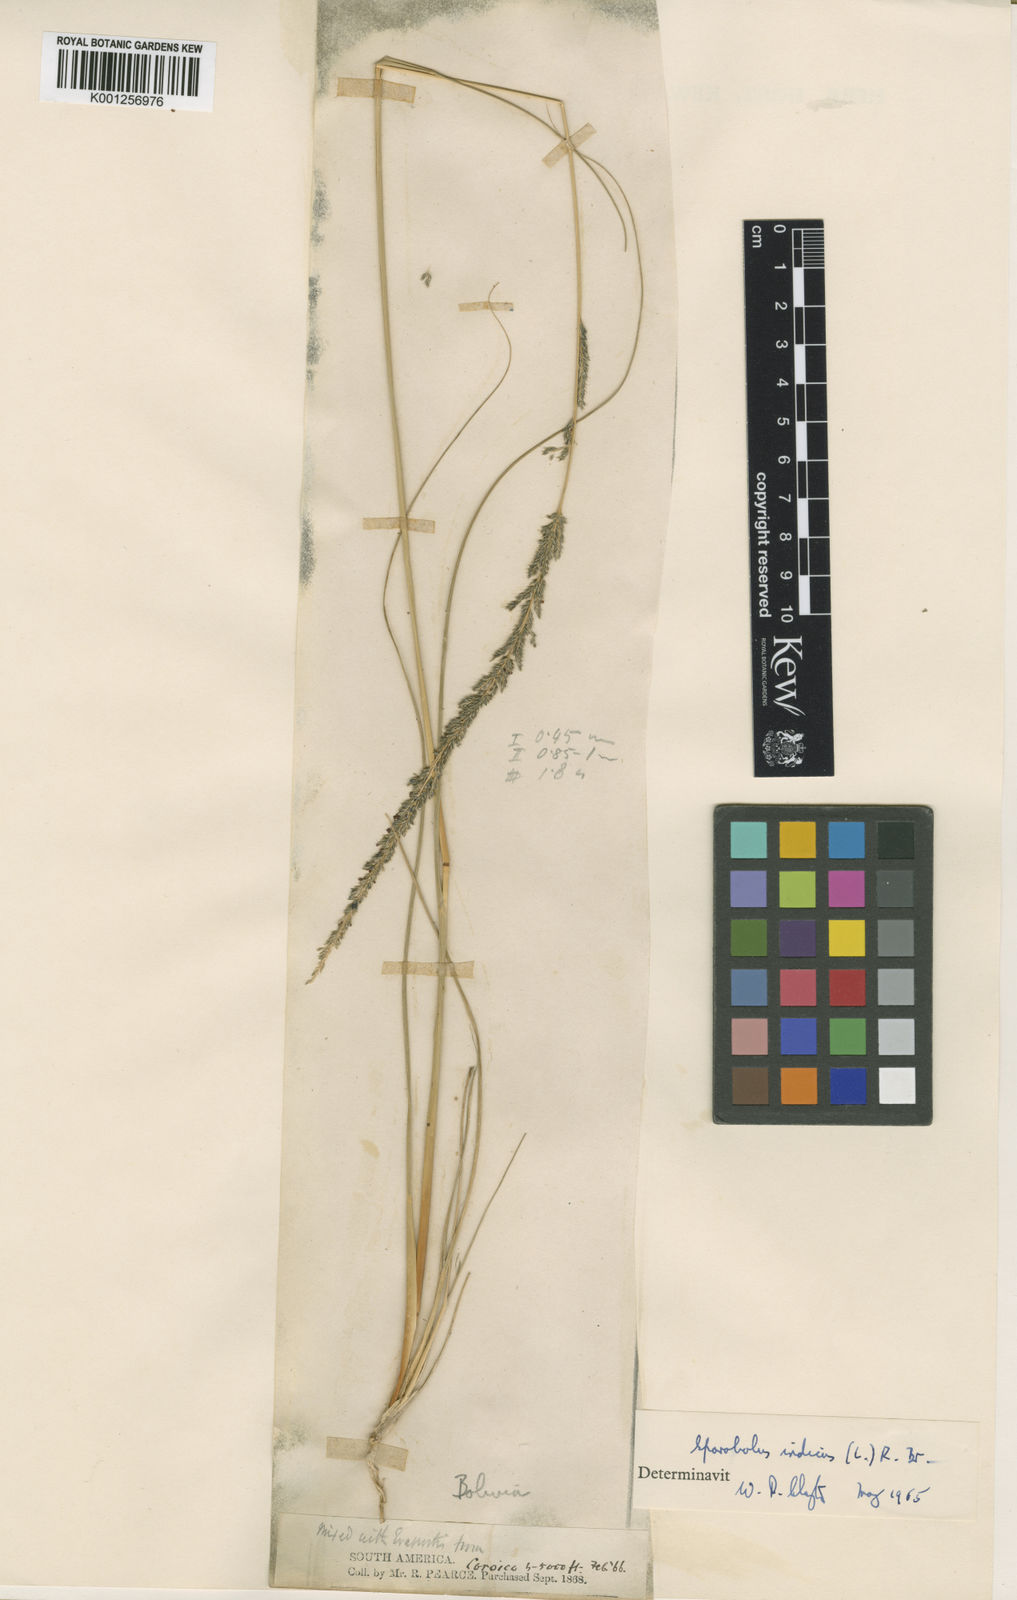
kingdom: Plantae
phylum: Tracheophyta
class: Liliopsida
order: Poales
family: Poaceae
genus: Sporobolus
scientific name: Sporobolus indicus
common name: Smut grass
